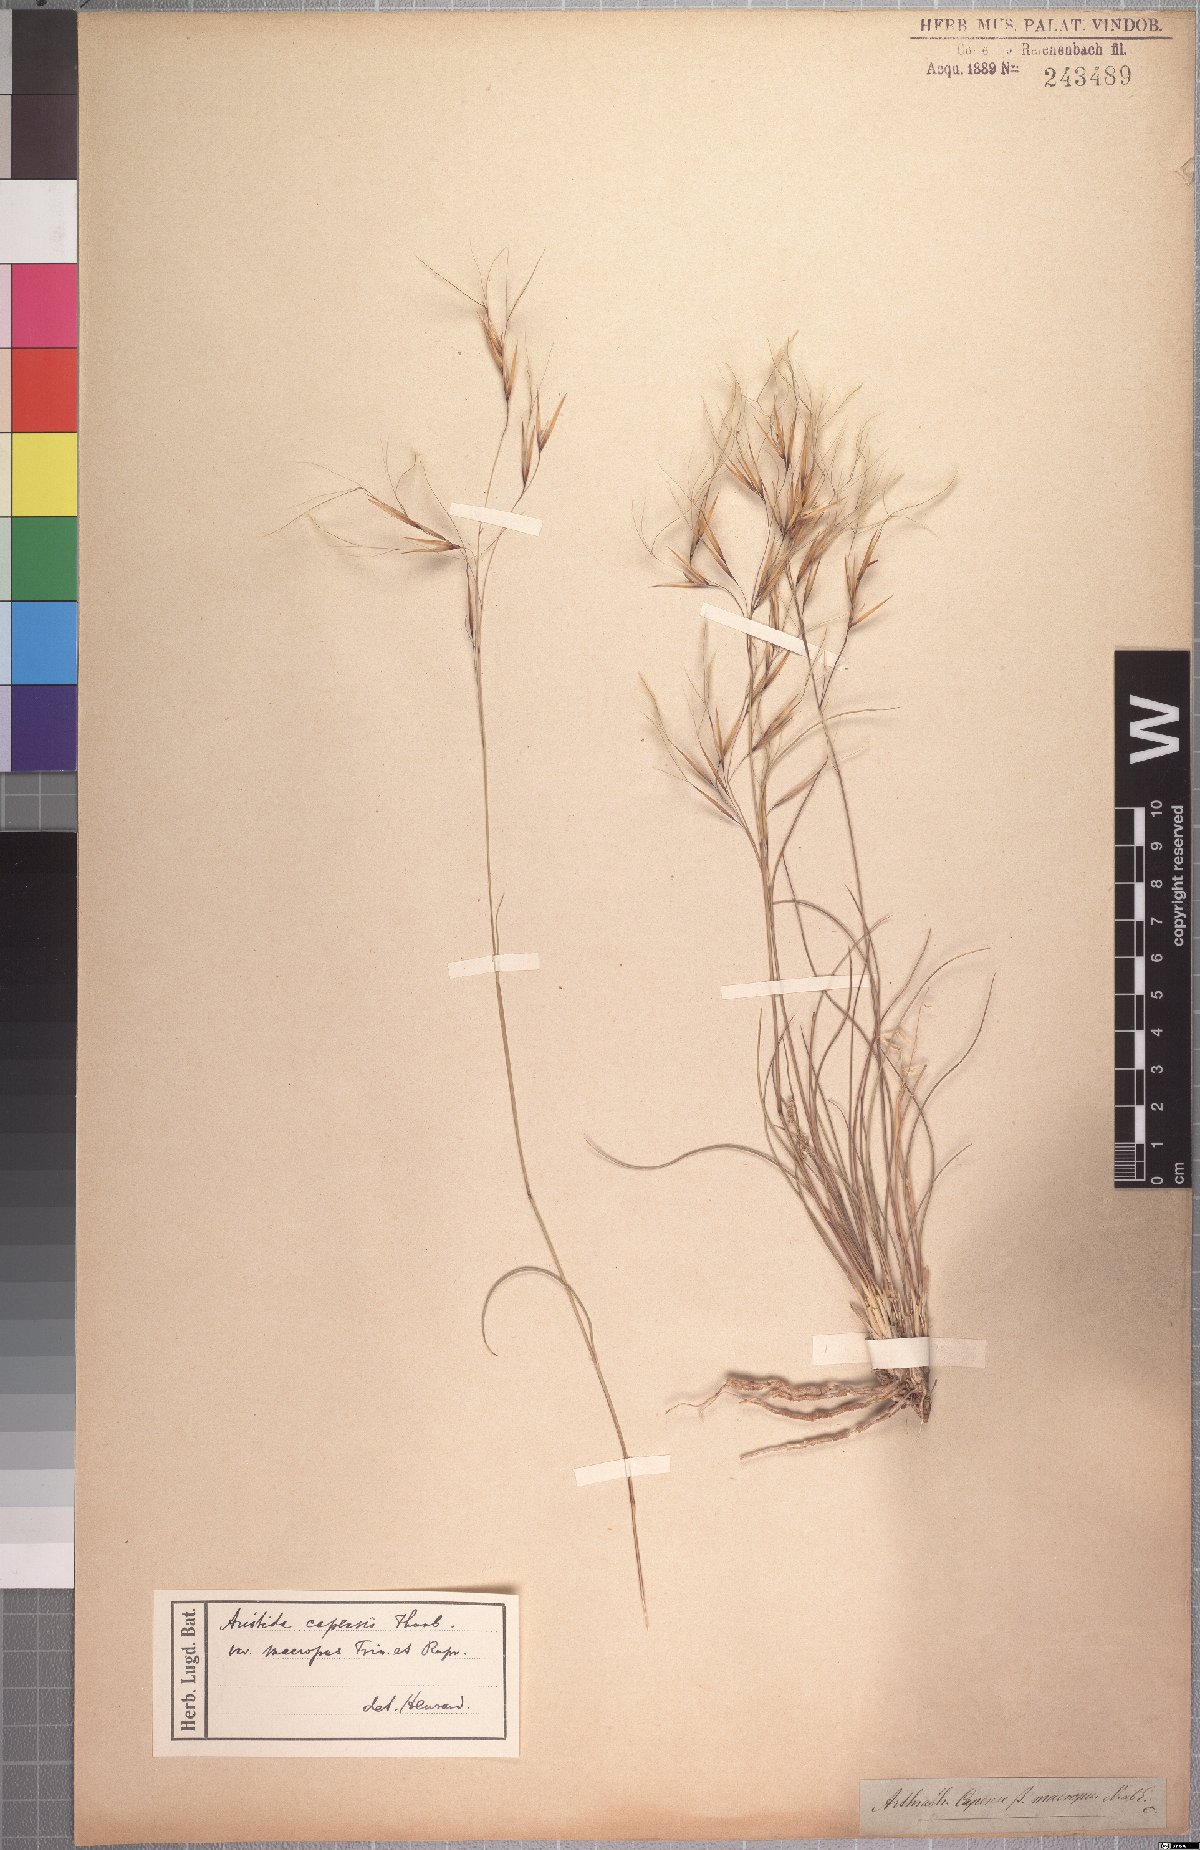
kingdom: Plantae
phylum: Tracheophyta
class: Liliopsida
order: Poales
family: Poaceae
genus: Stipagrostis
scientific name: Stipagrostis zeyheri
